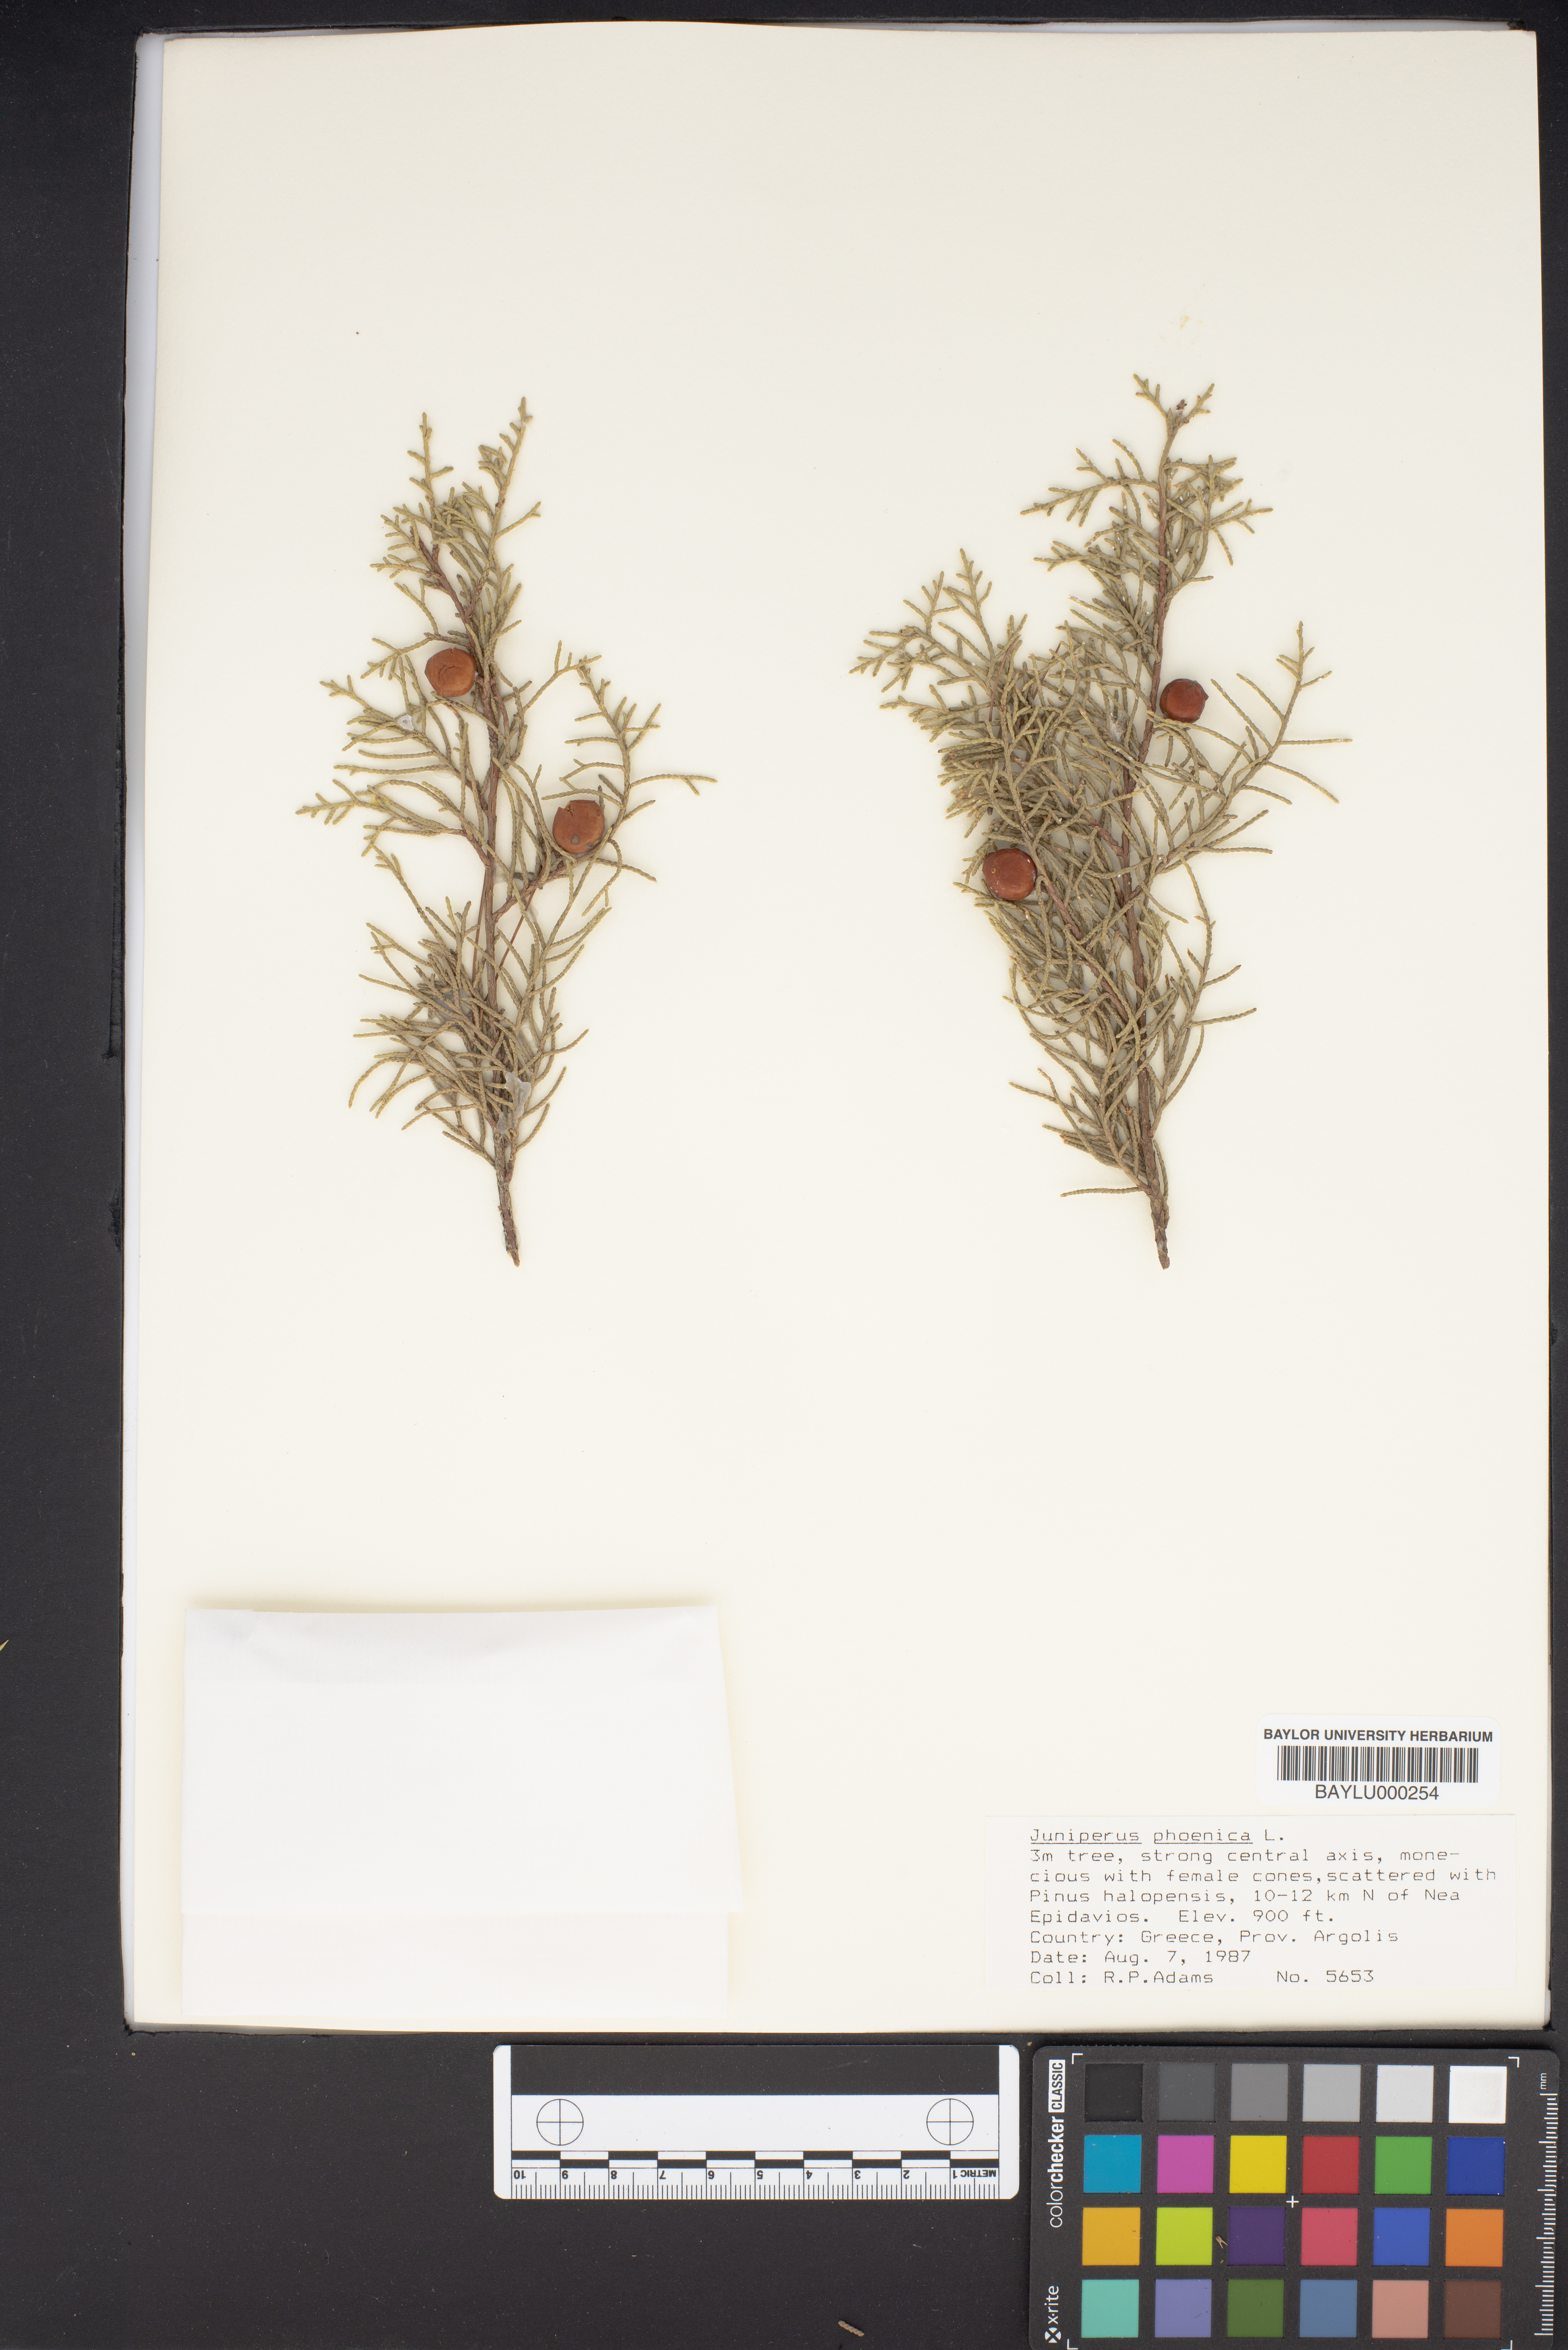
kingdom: Plantae
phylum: Tracheophyta
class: Pinopsida
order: Pinales
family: Cupressaceae
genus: Juniperus
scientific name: Juniperus phoenicea
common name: Phoenician juniper
